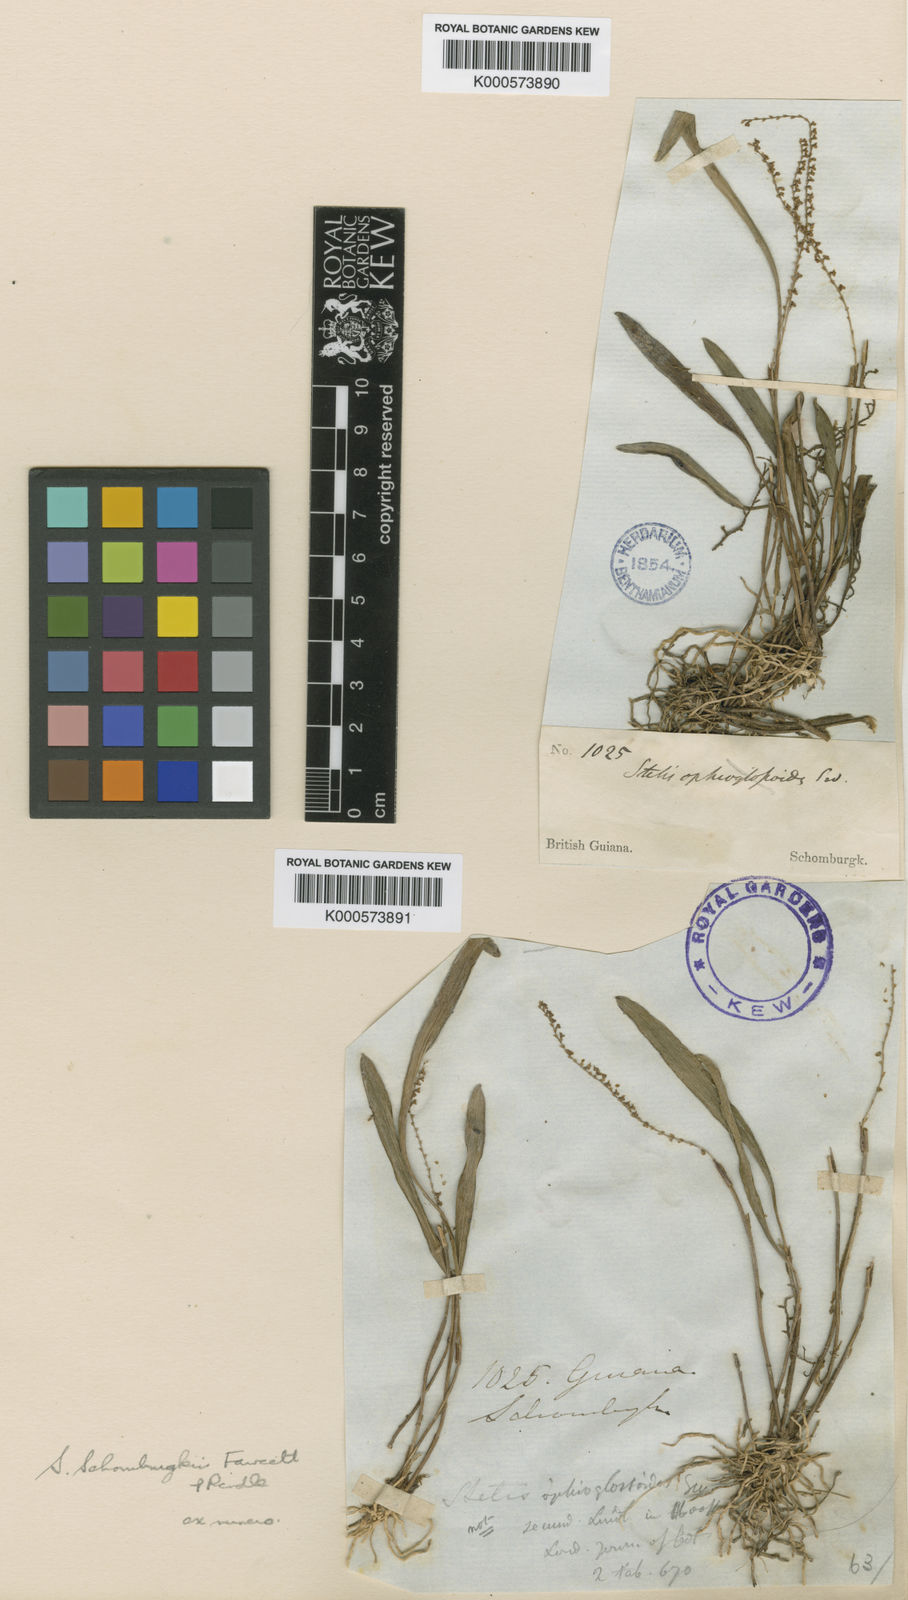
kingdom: Plantae
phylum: Tracheophyta
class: Liliopsida
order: Asparagales
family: Orchidaceae
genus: Stelis
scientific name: Stelis schomburgkii
